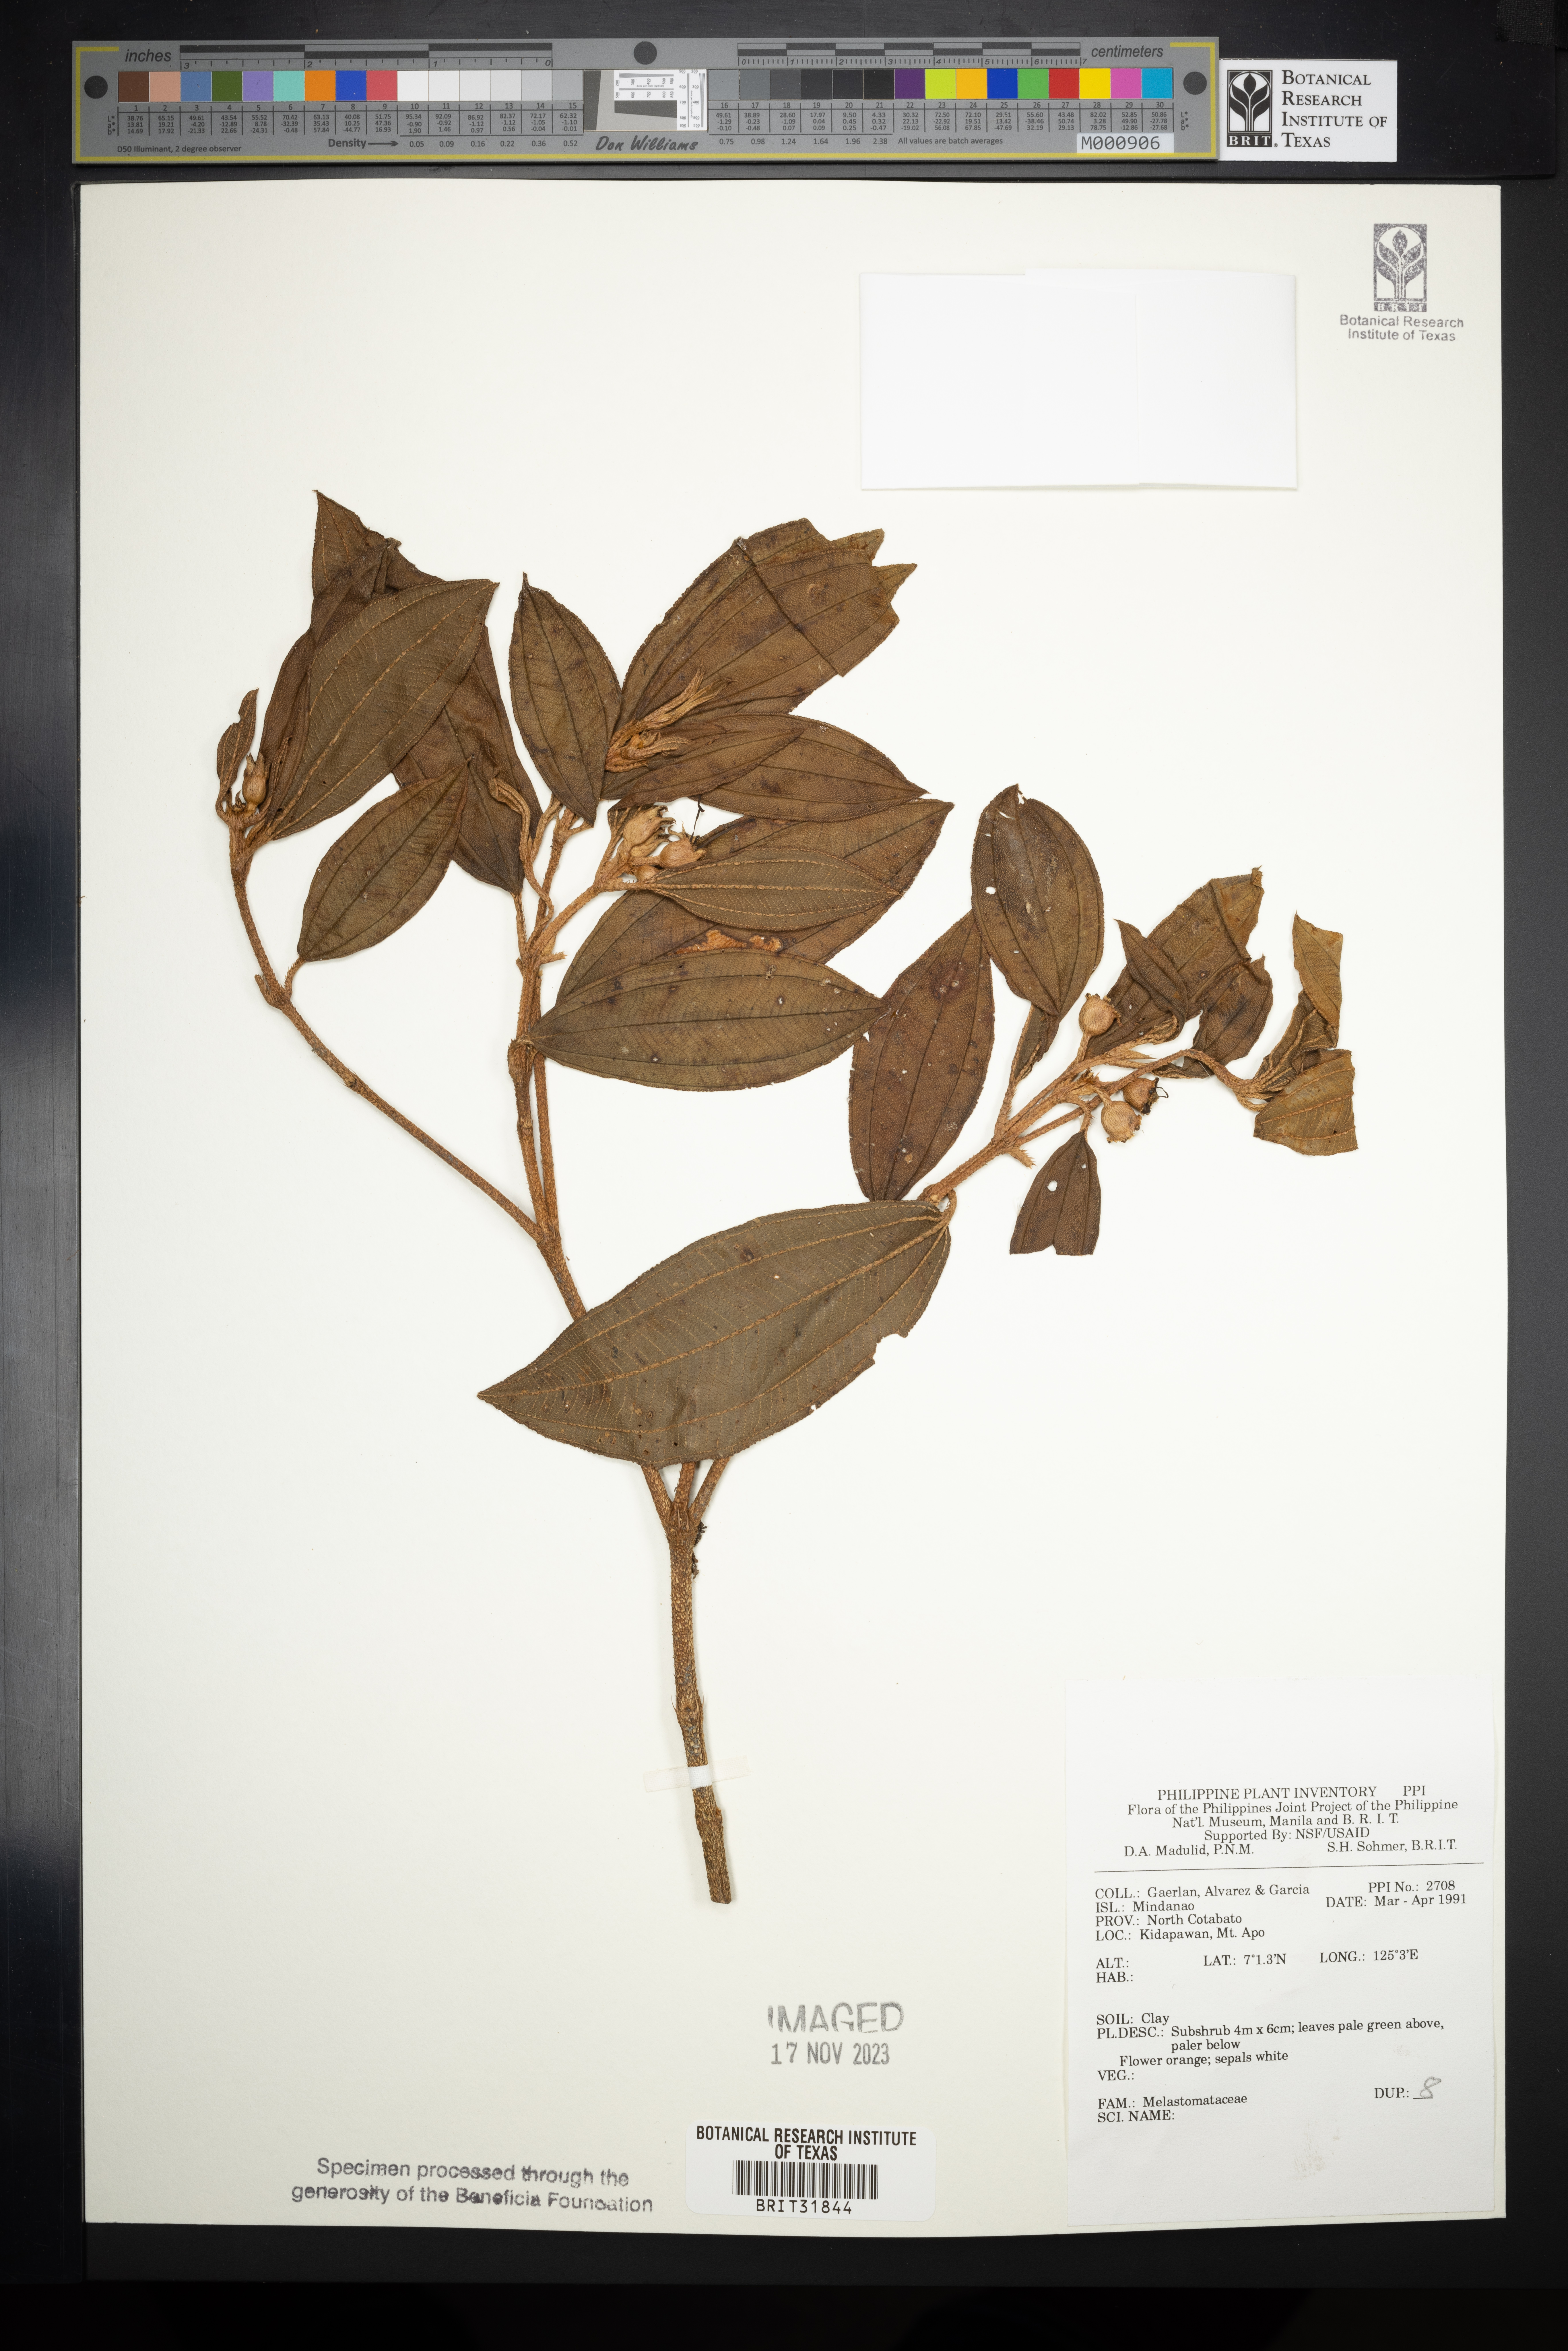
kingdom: Plantae
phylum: Tracheophyta
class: Magnoliopsida
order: Myrtales
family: Melastomataceae
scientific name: Melastomataceae
